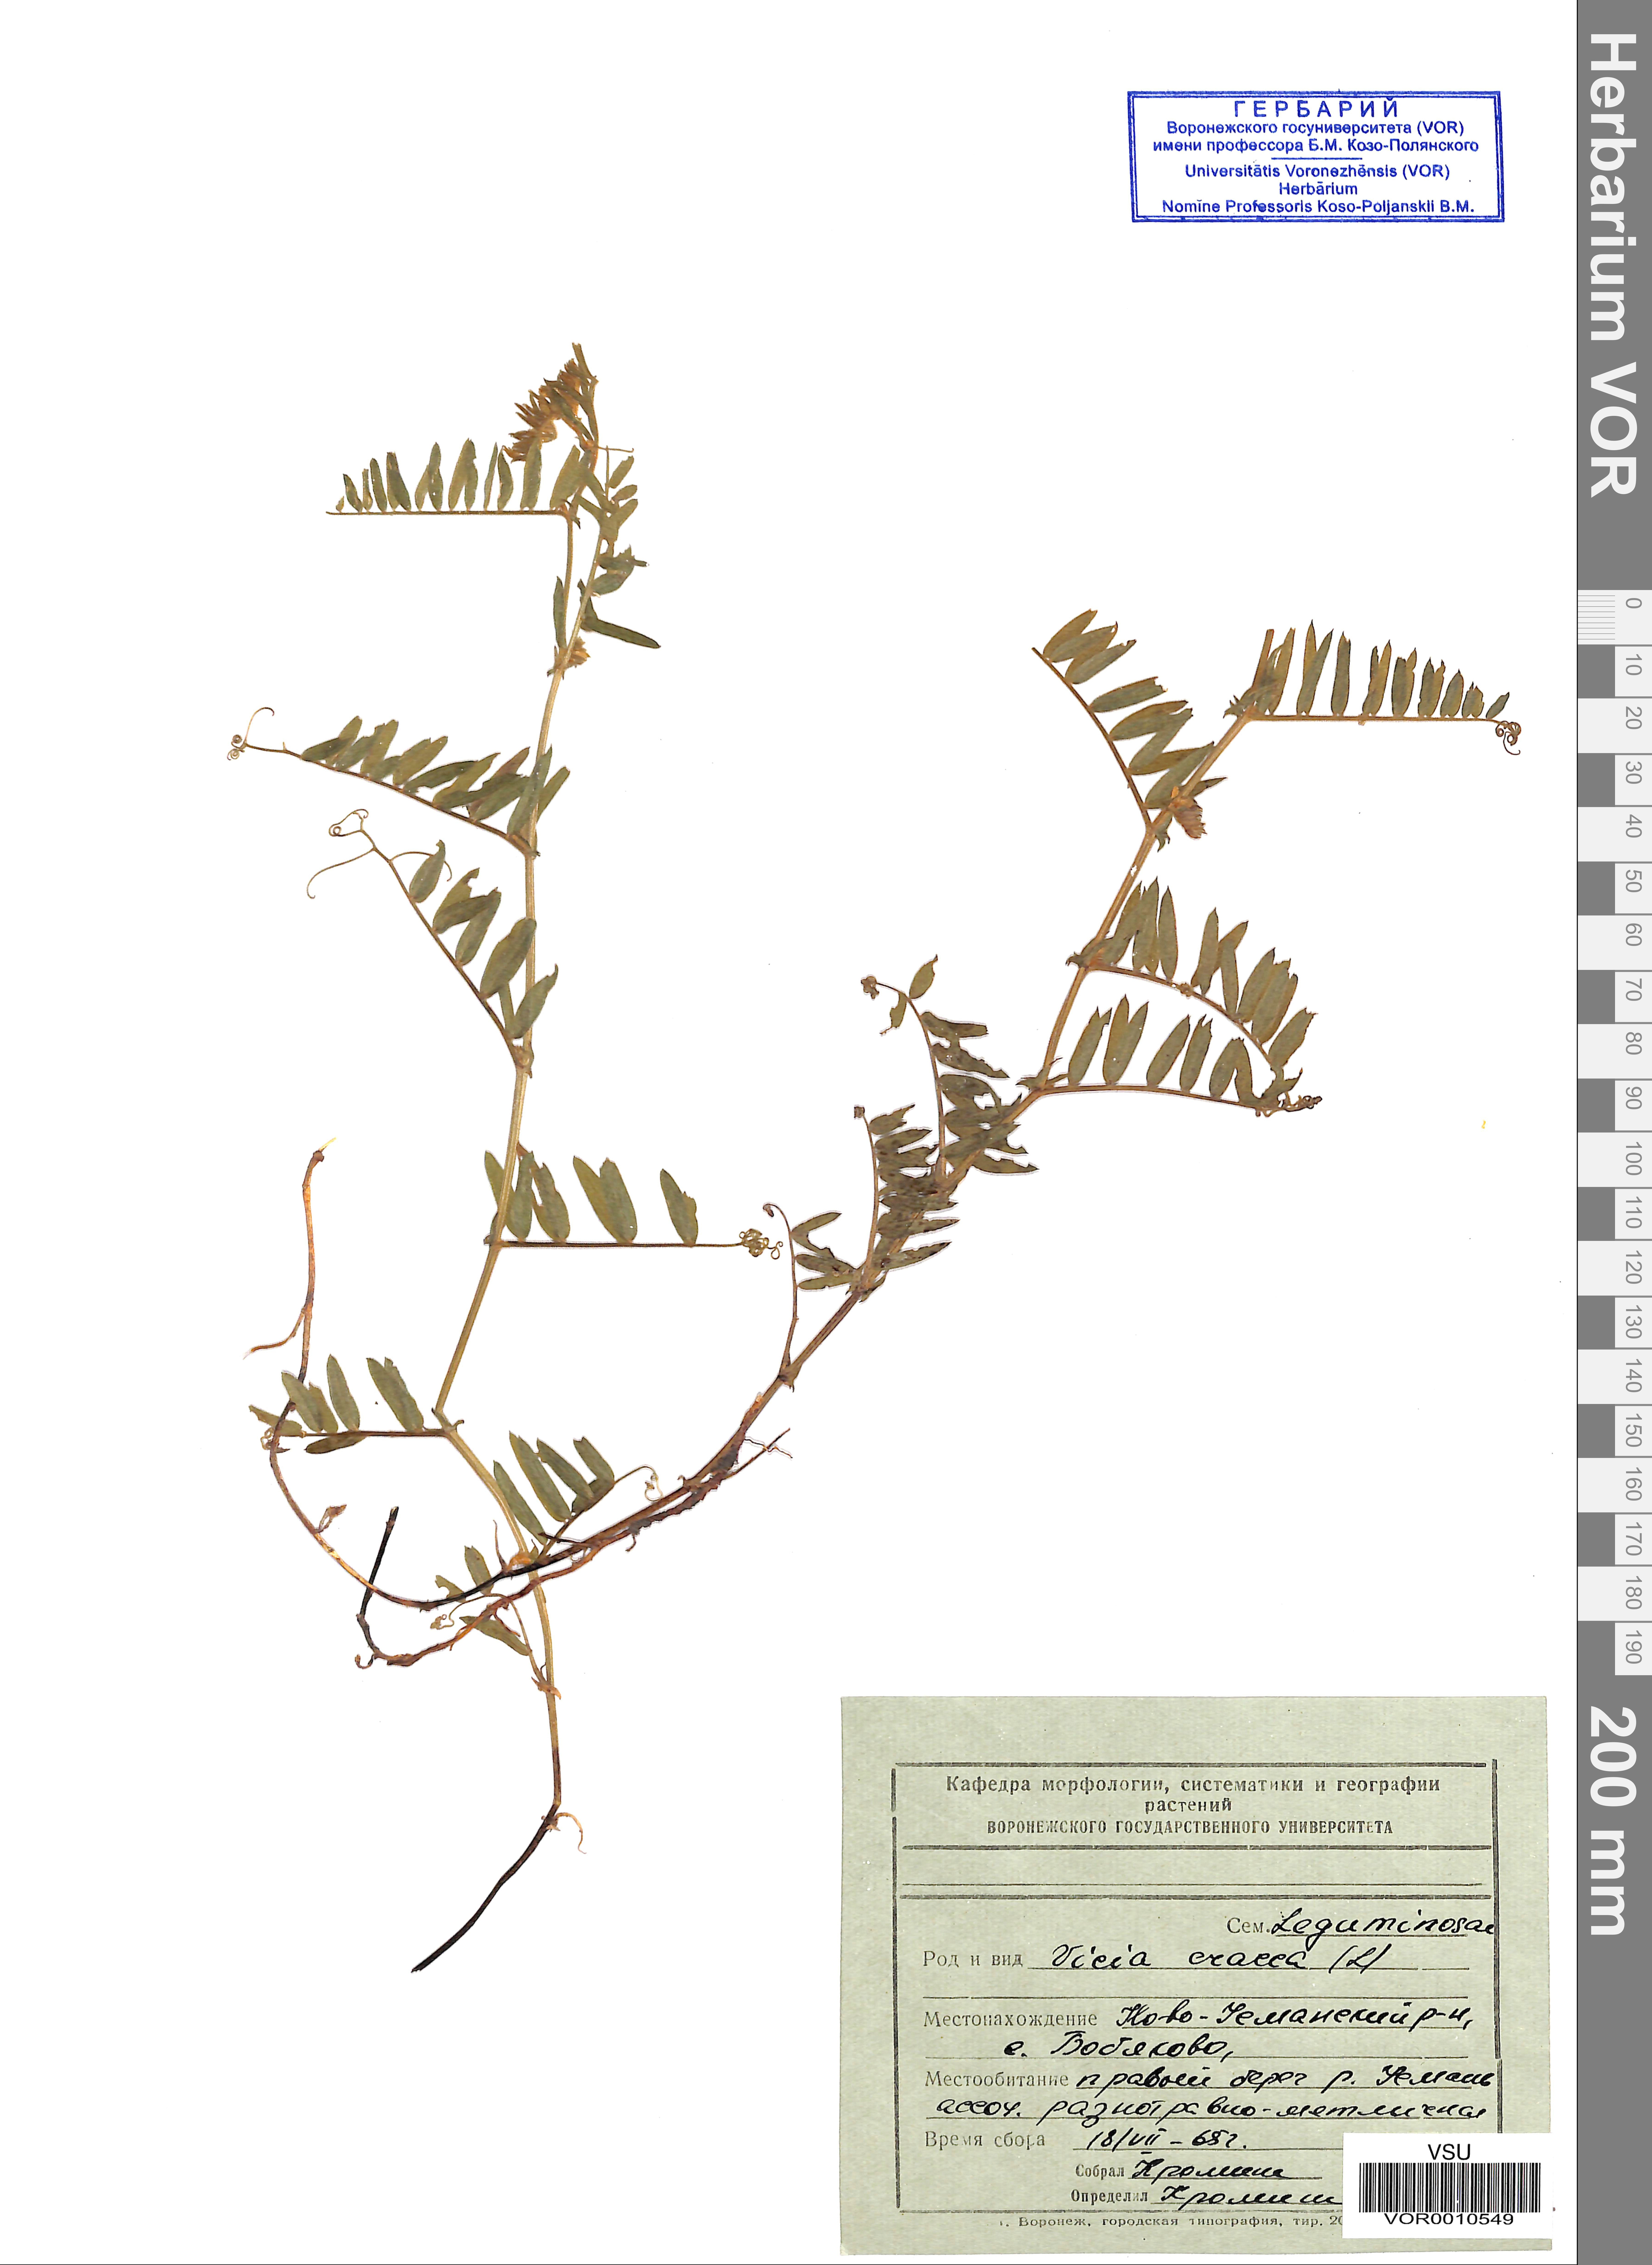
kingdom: Plantae
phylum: Tracheophyta
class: Magnoliopsida
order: Fabales
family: Fabaceae
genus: Vicia
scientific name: Vicia cracca
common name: Bird vetch
